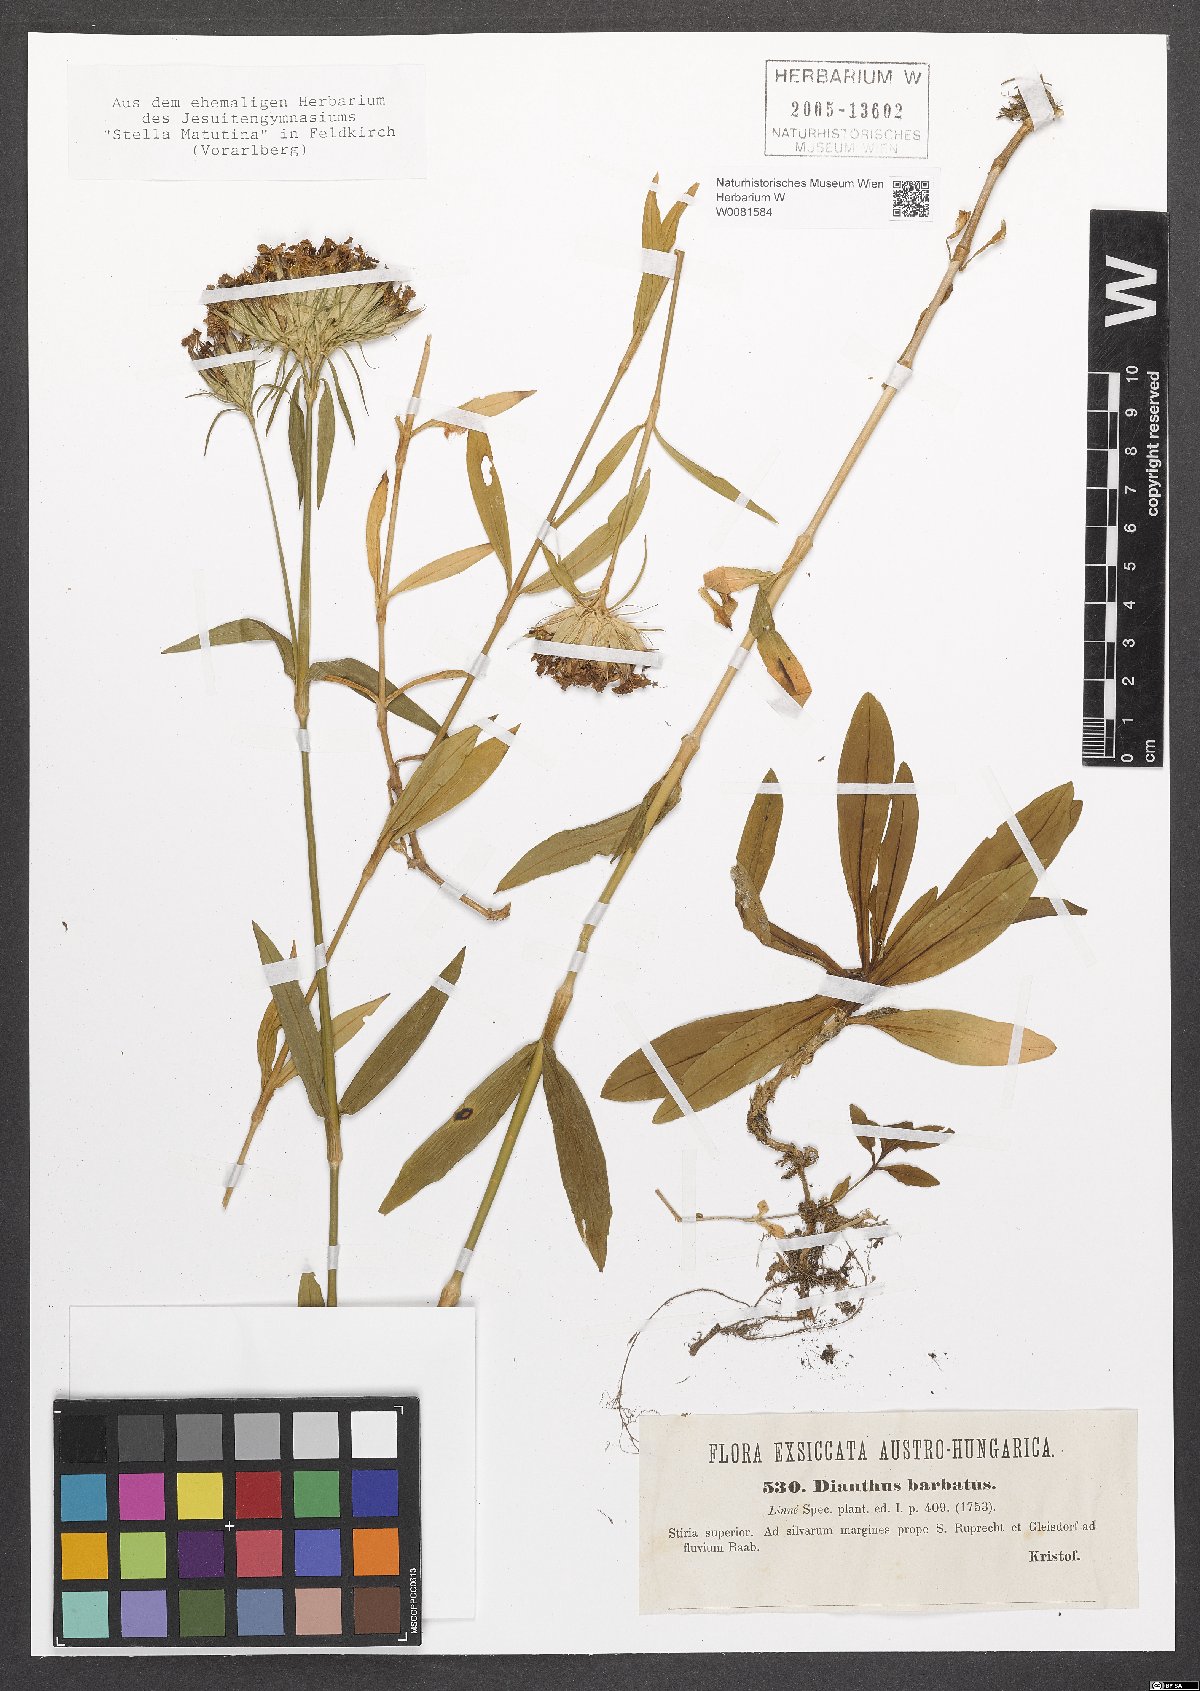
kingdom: Plantae
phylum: Tracheophyta
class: Magnoliopsida
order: Caryophyllales
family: Caryophyllaceae
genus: Dianthus
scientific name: Dianthus barbatus
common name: Sweet-william
